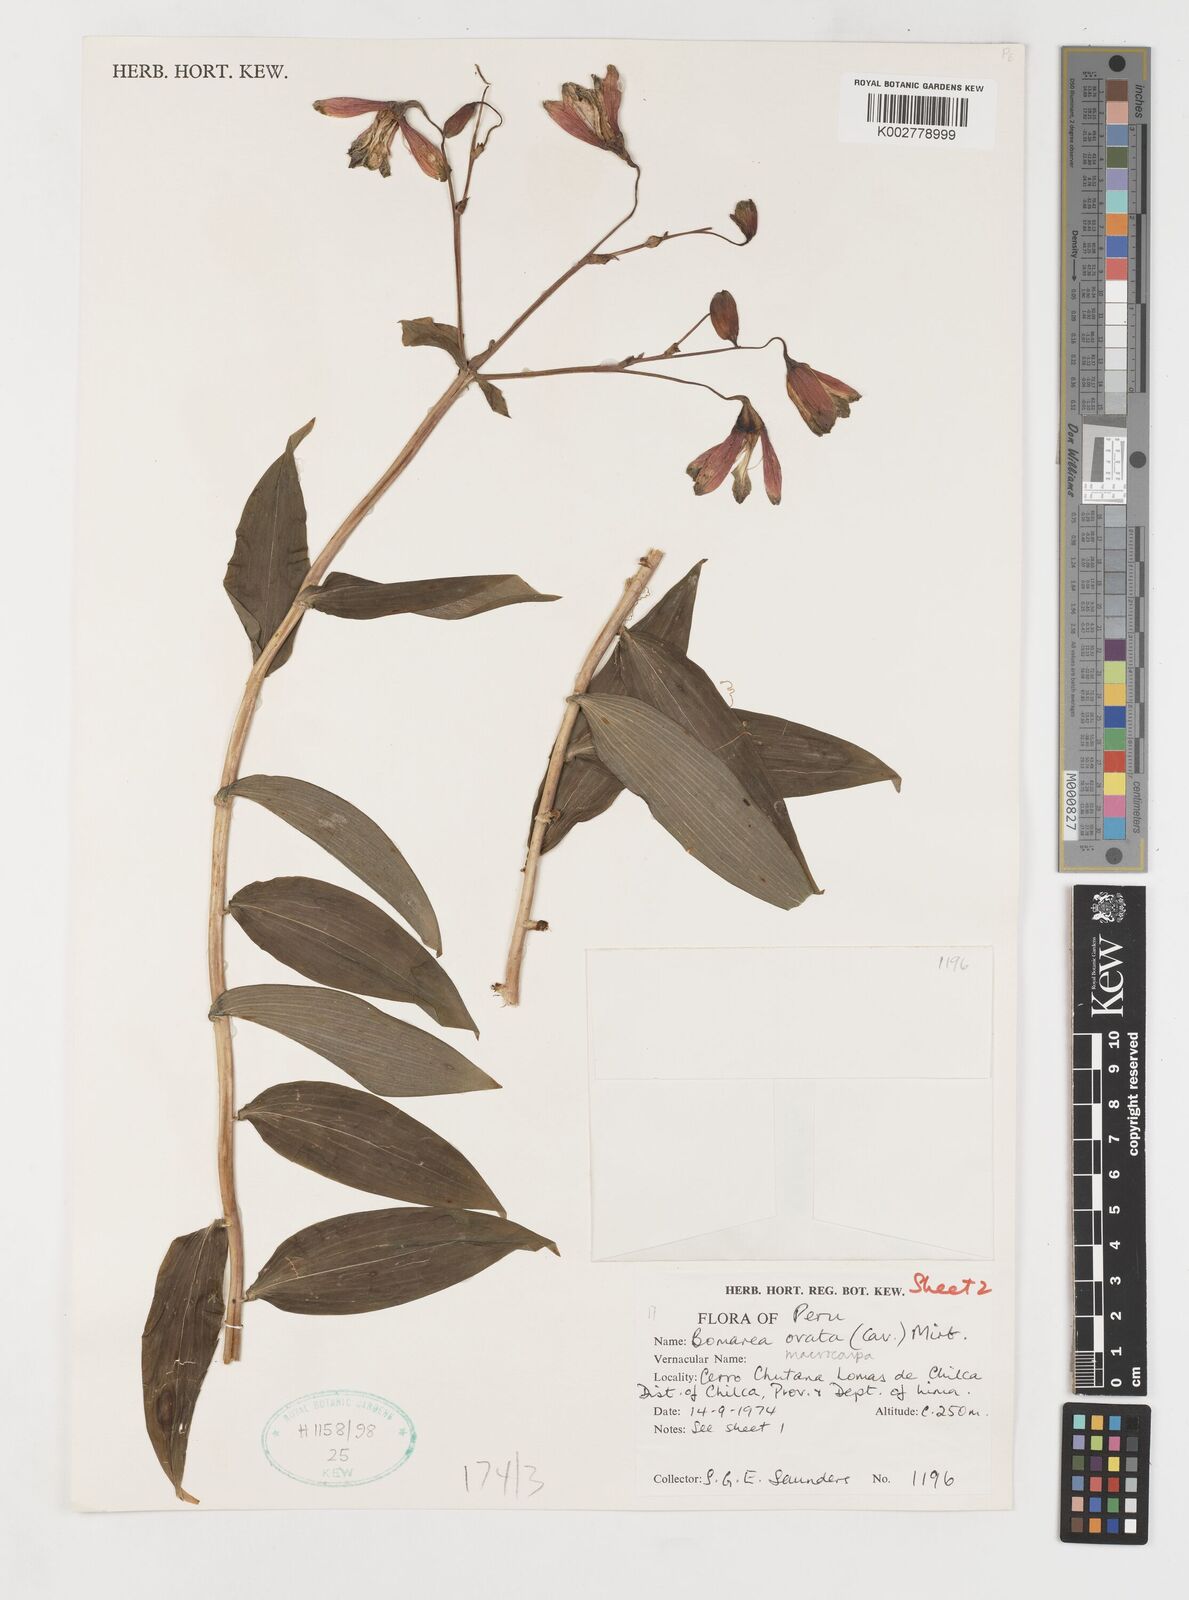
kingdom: Plantae
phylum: Tracheophyta
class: Liliopsida
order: Liliales
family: Alstroemeriaceae
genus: Bomarea
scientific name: Bomarea ovata
